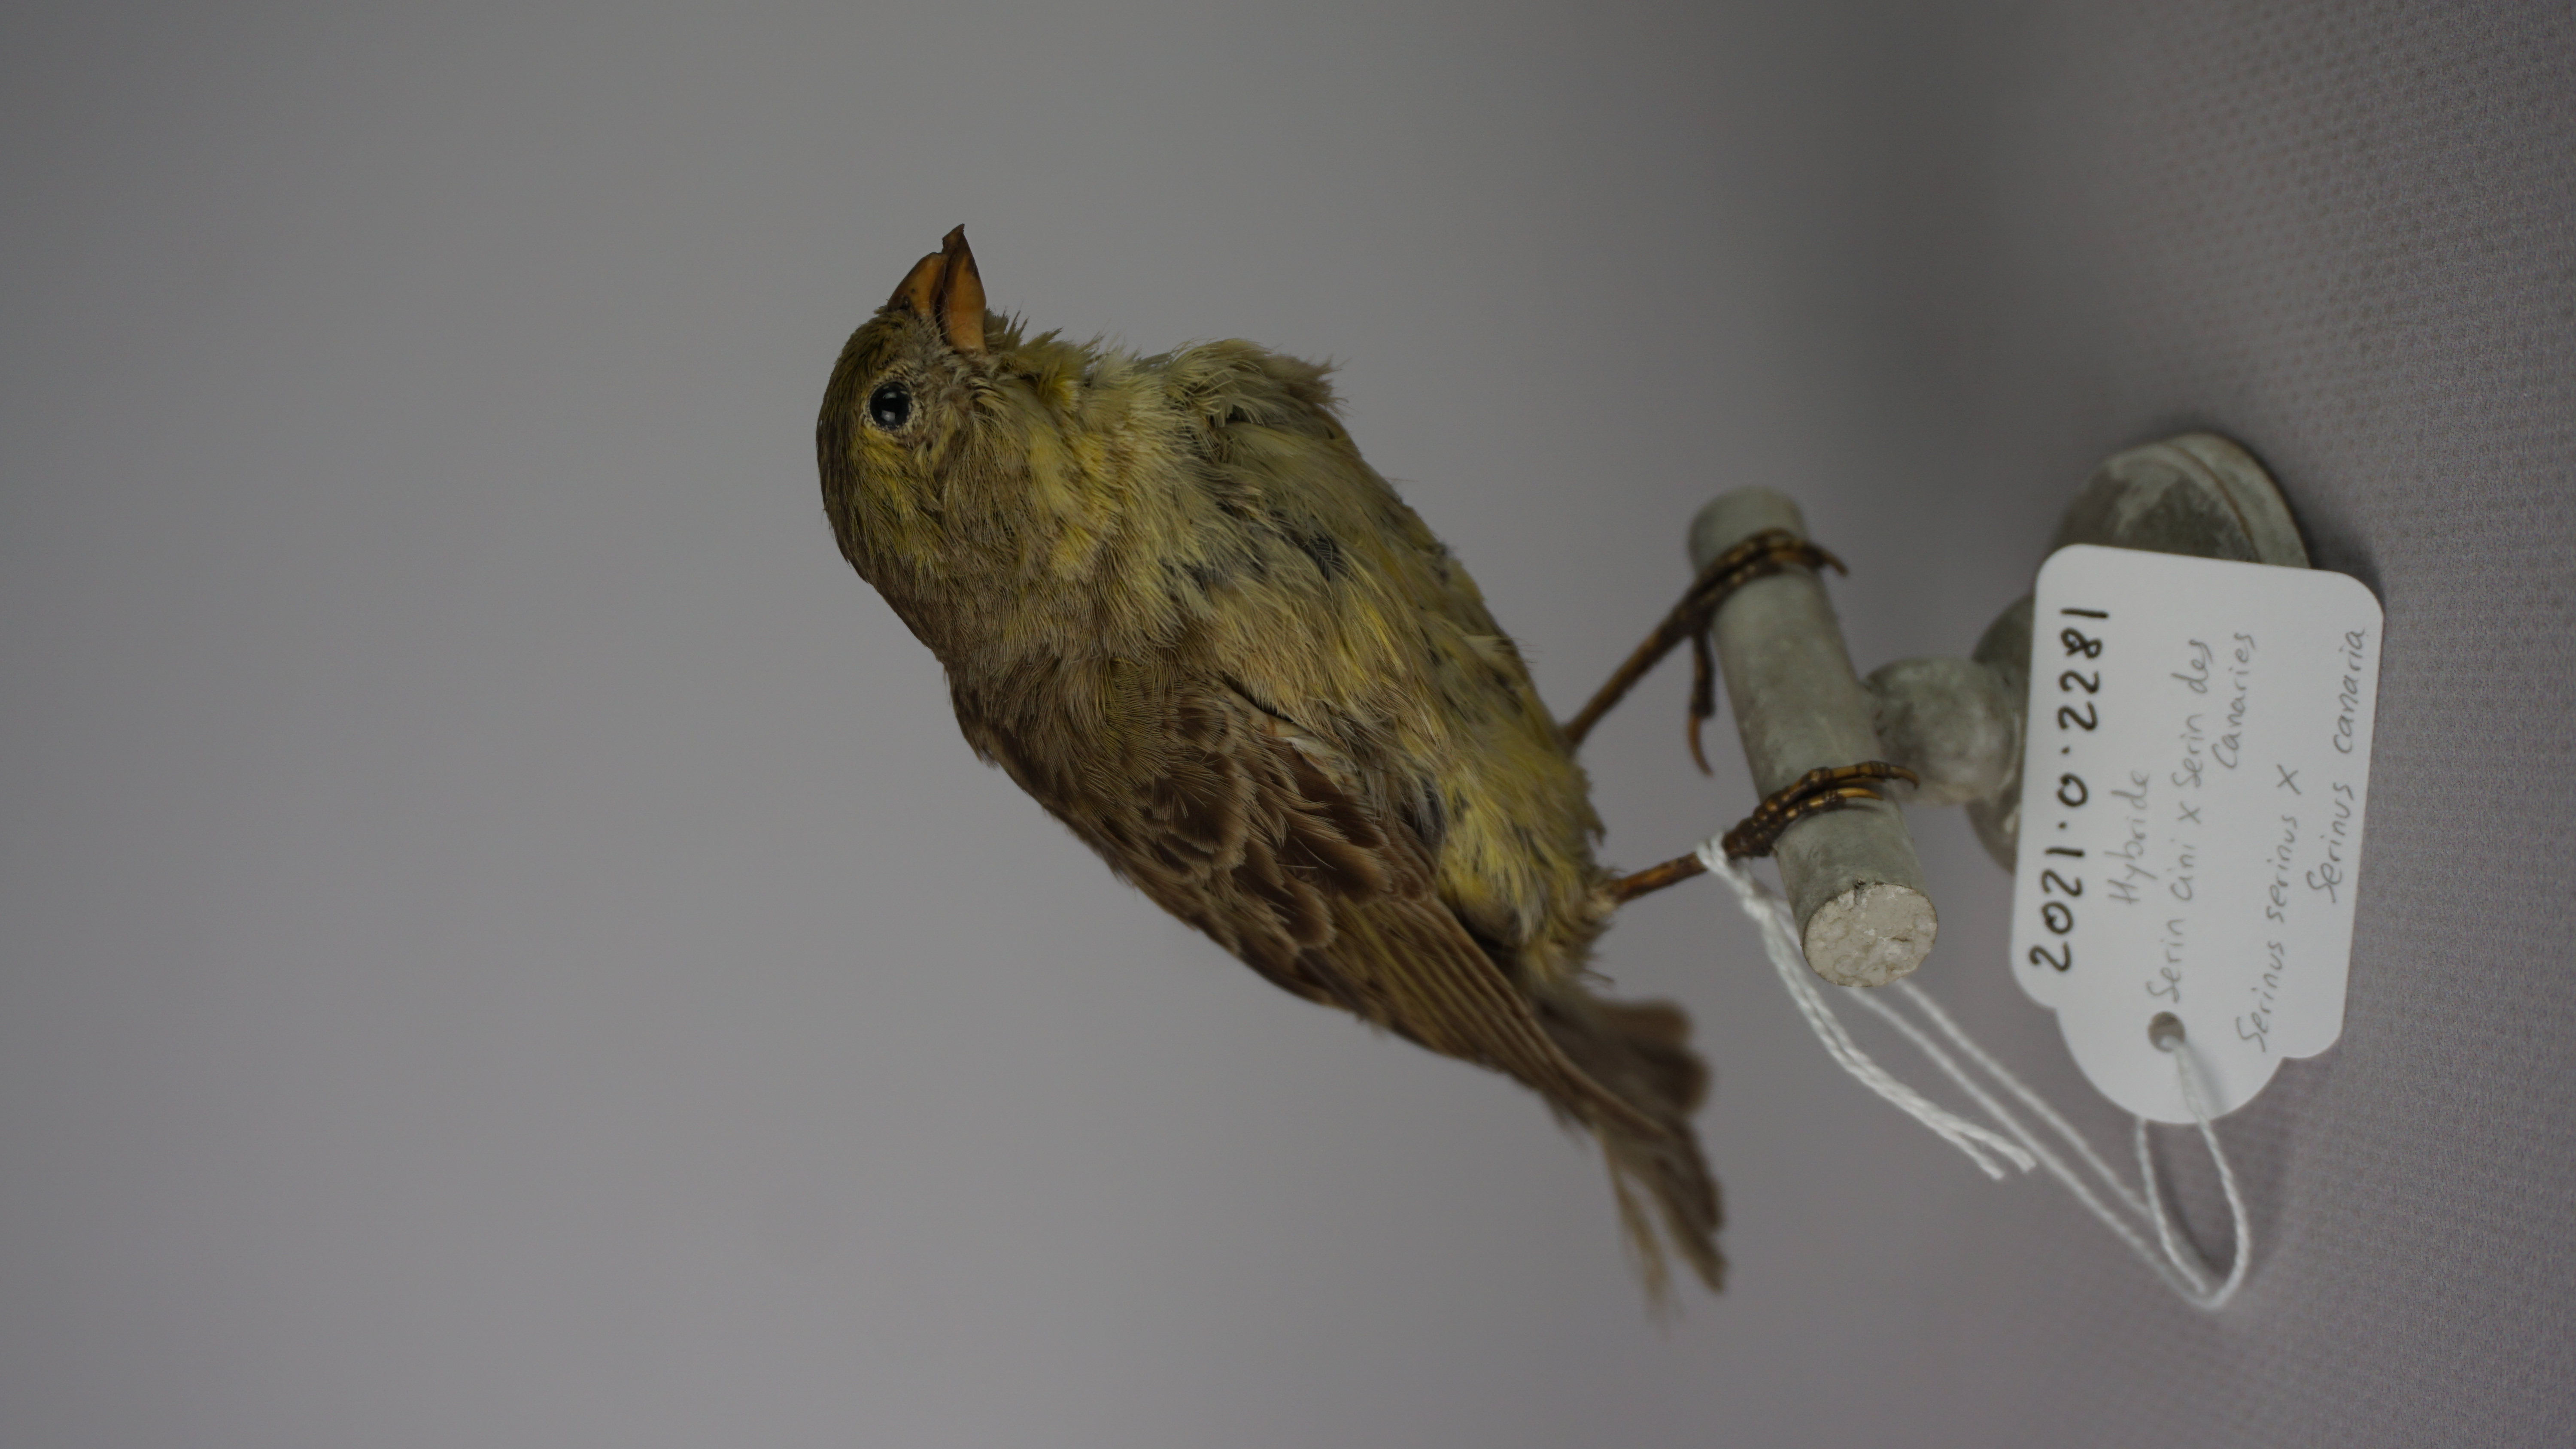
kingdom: Animalia
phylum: Chordata
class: Aves
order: Passeriformes
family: Fringillidae
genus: Serinus
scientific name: Serinus serinus
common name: European serin
